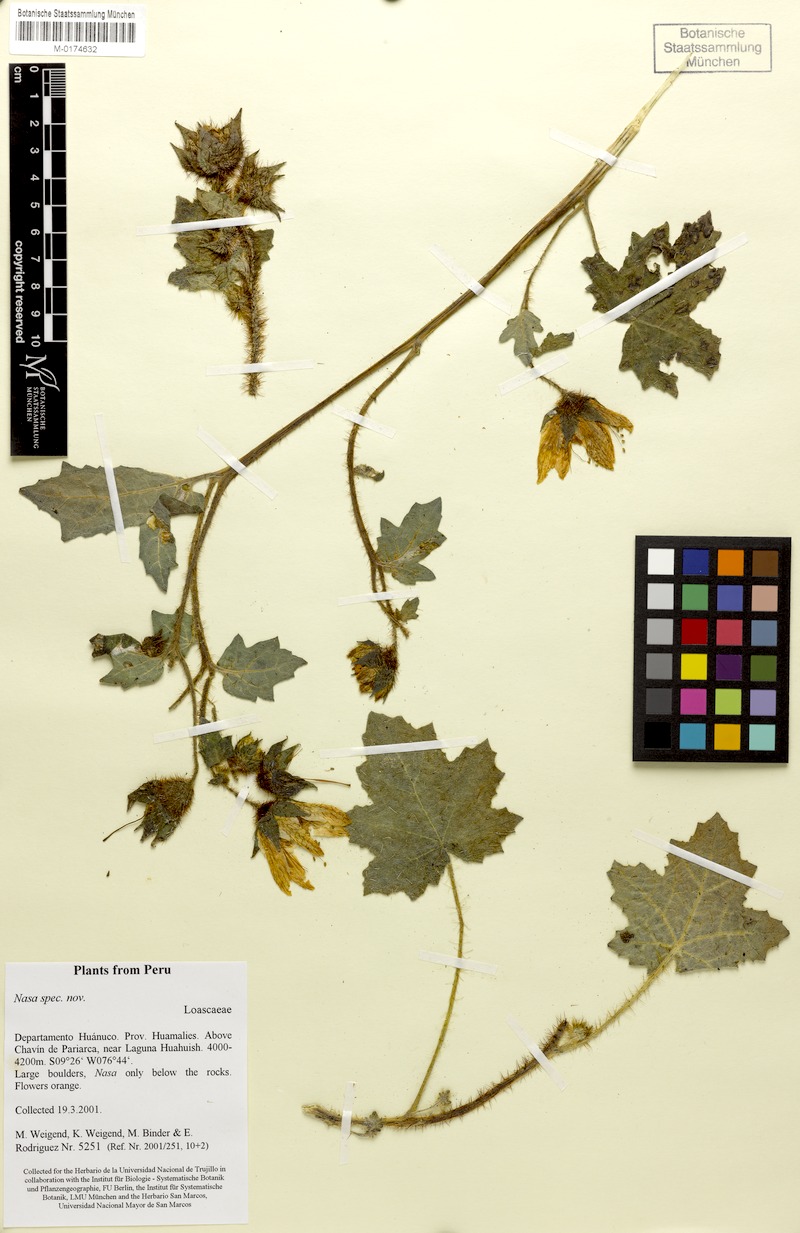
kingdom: Plantae
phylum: Tracheophyta
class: Magnoliopsida
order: Cornales
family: Loasaceae
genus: Nasa
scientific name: Nasa ranunculifolia
